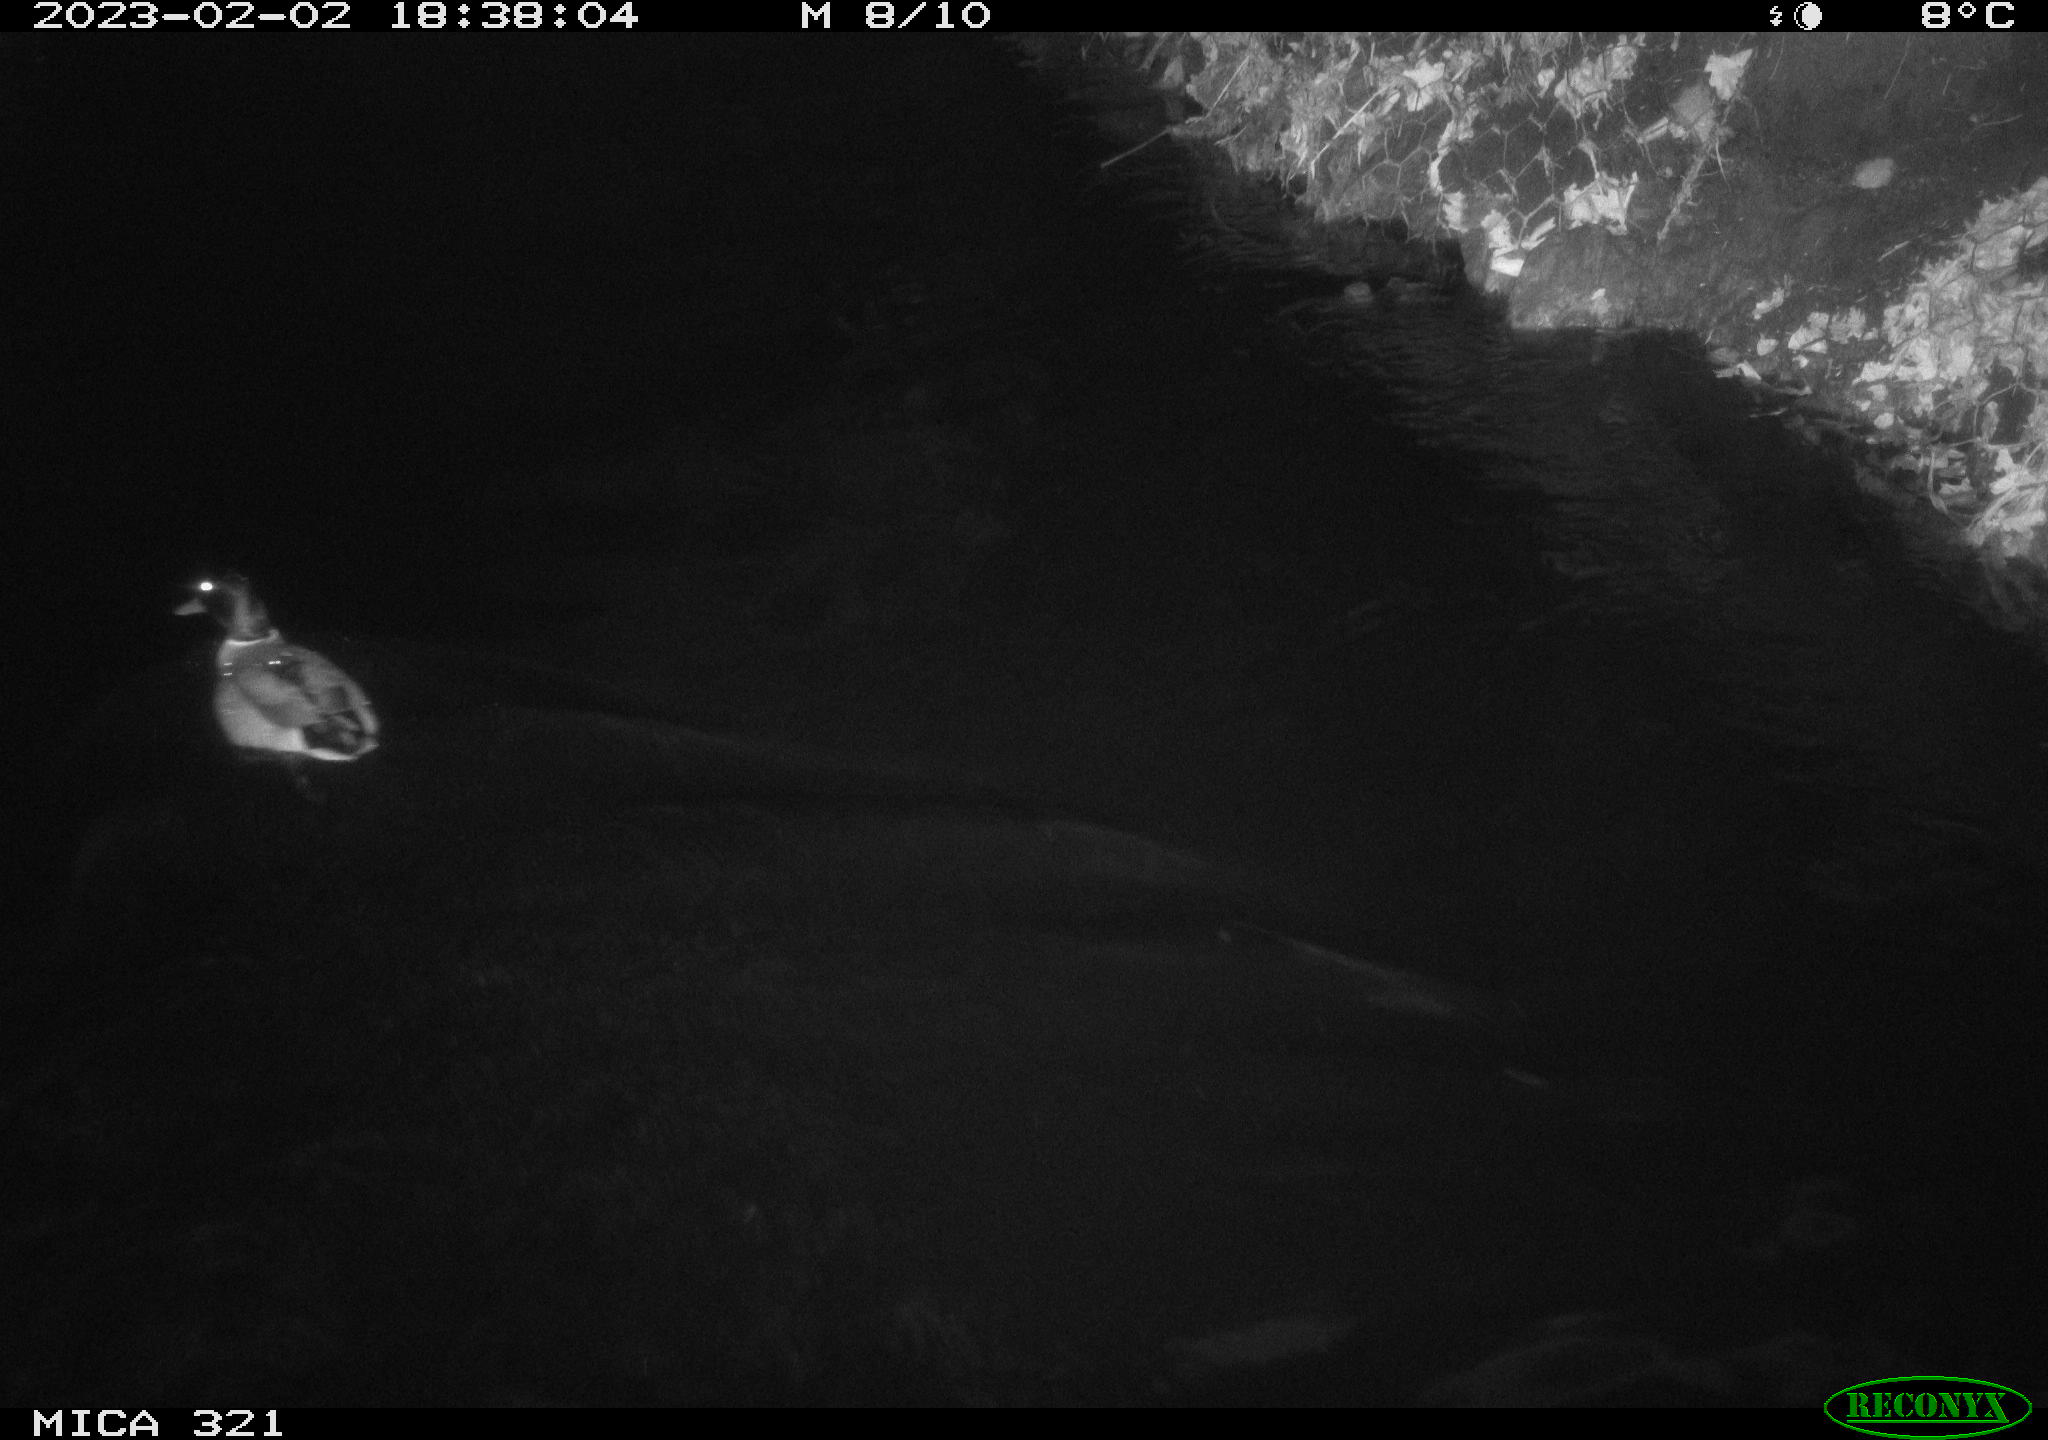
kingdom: Animalia
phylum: Chordata
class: Aves
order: Anseriformes
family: Anatidae
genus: Anas
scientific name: Anas
